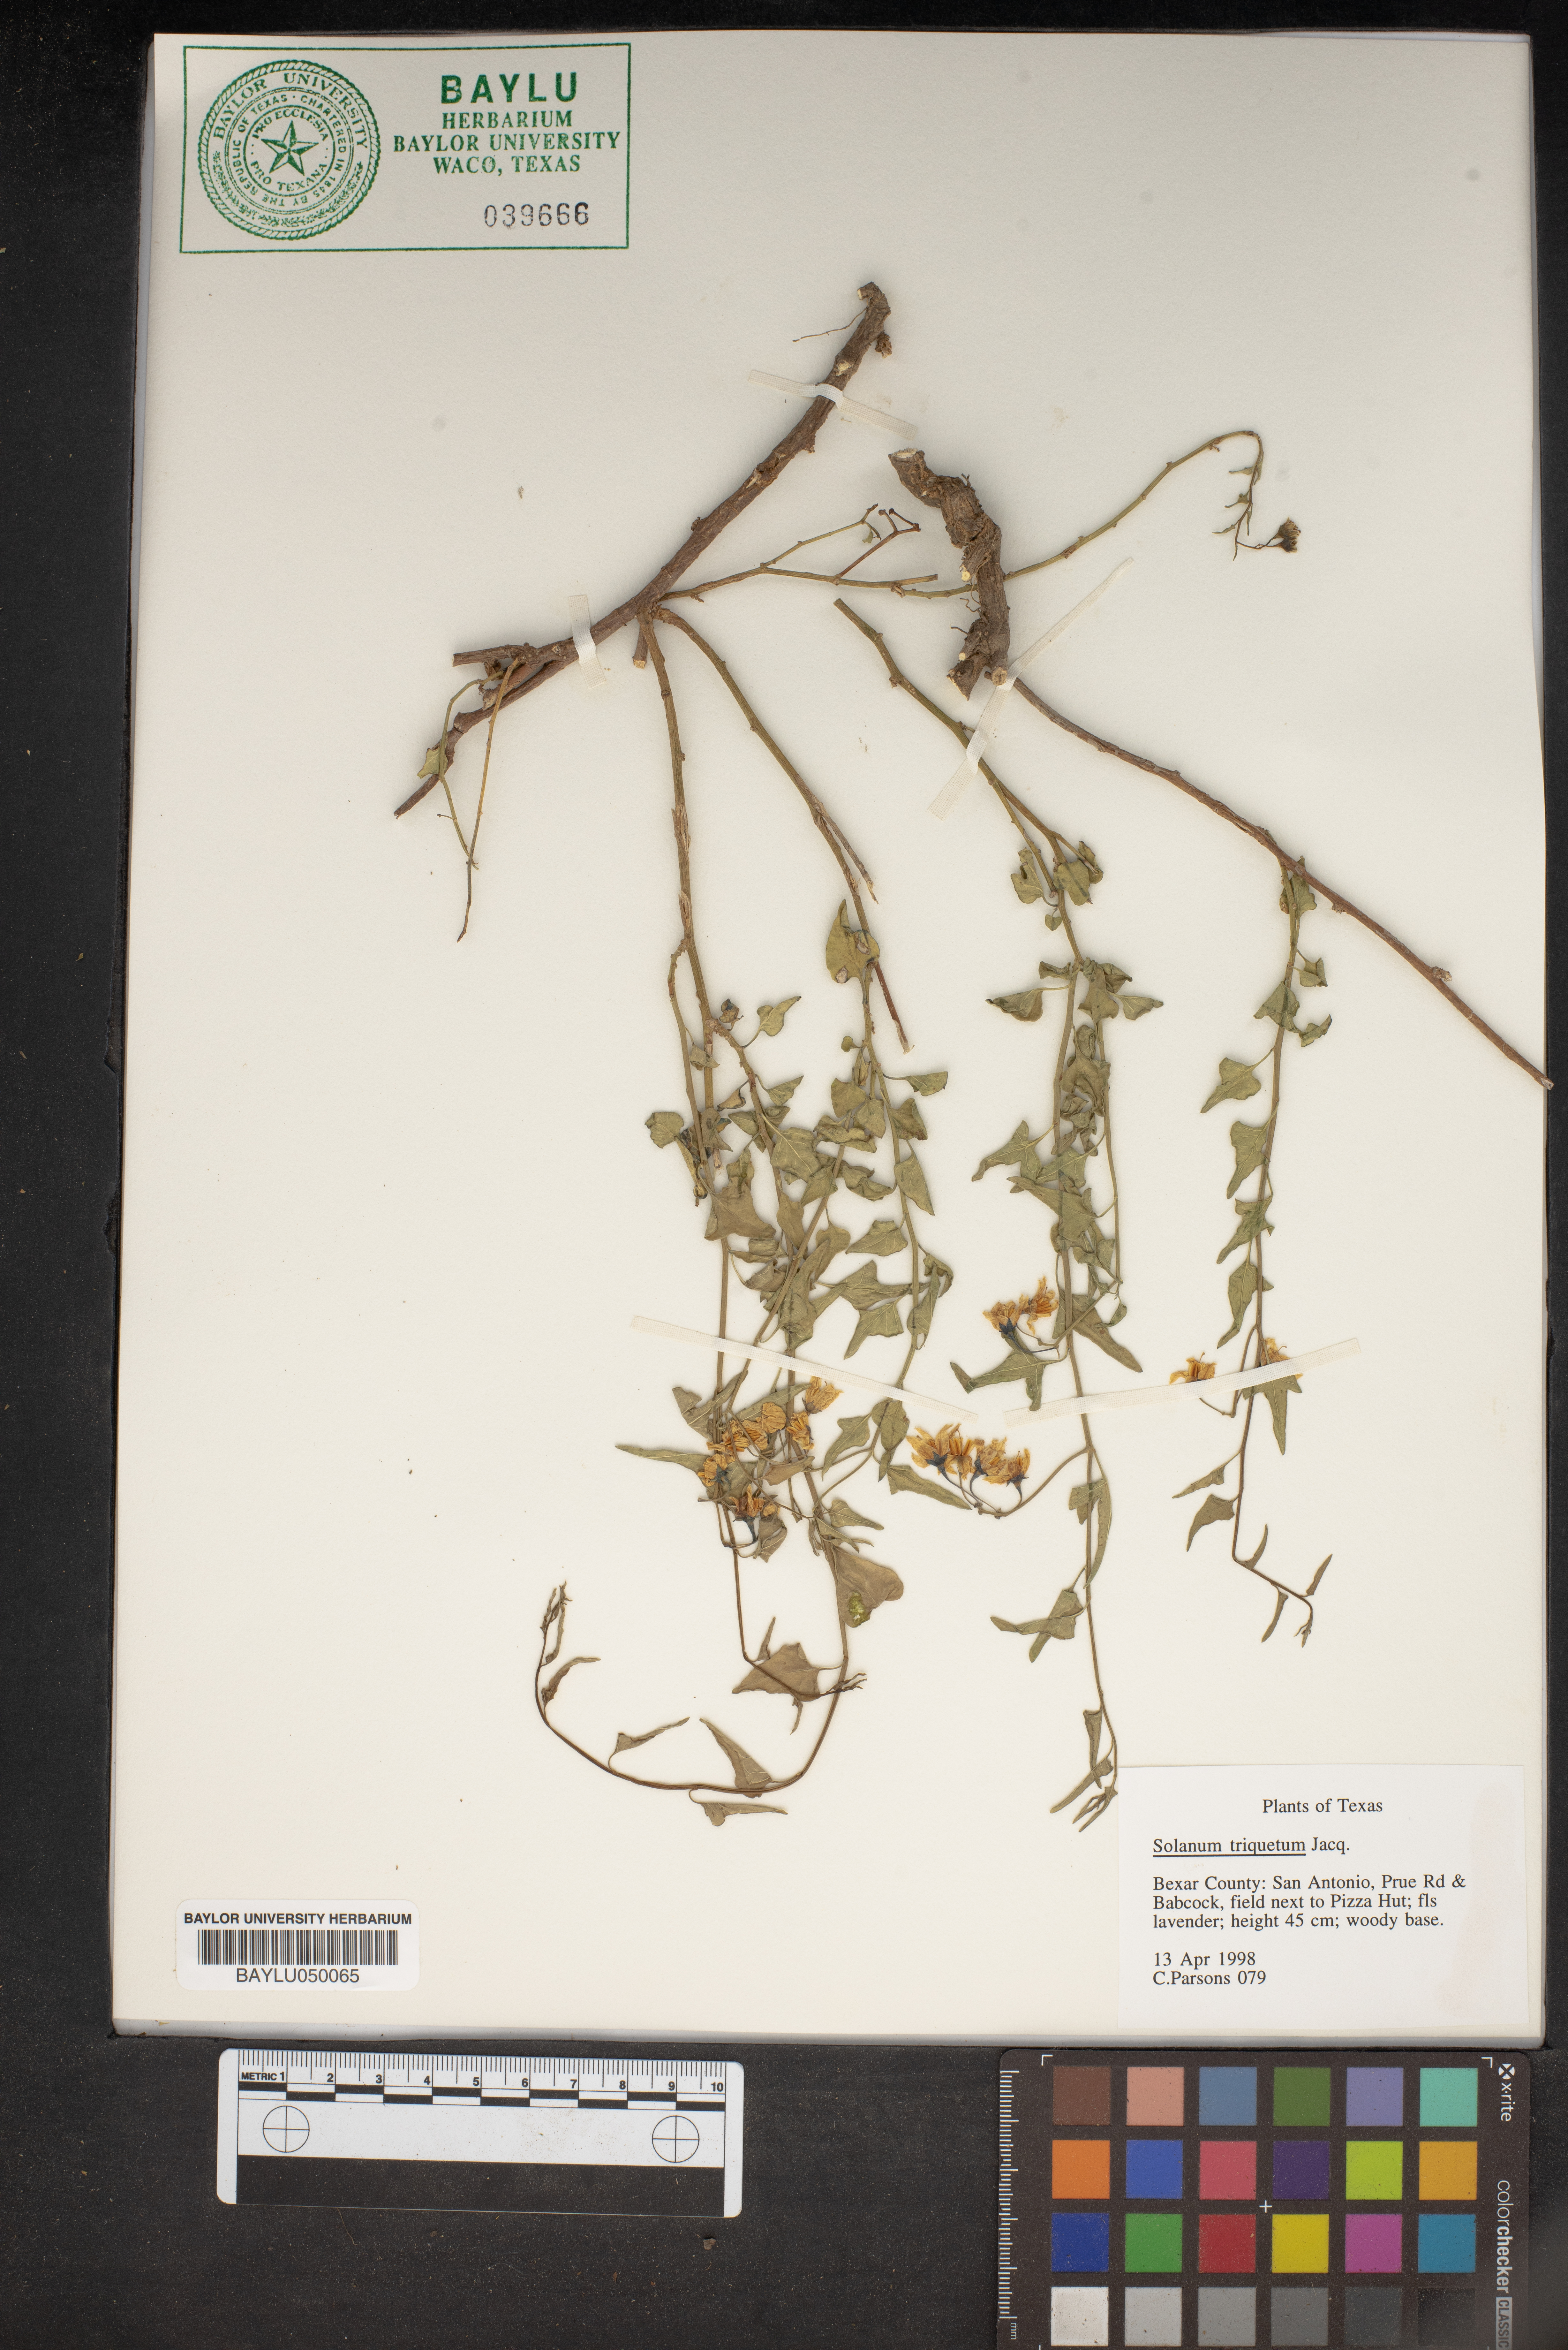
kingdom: Plantae
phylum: Tracheophyta
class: Magnoliopsida
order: Solanales
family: Solanaceae
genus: Solanum
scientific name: Solanum triquetrum
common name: Texas nightshade
